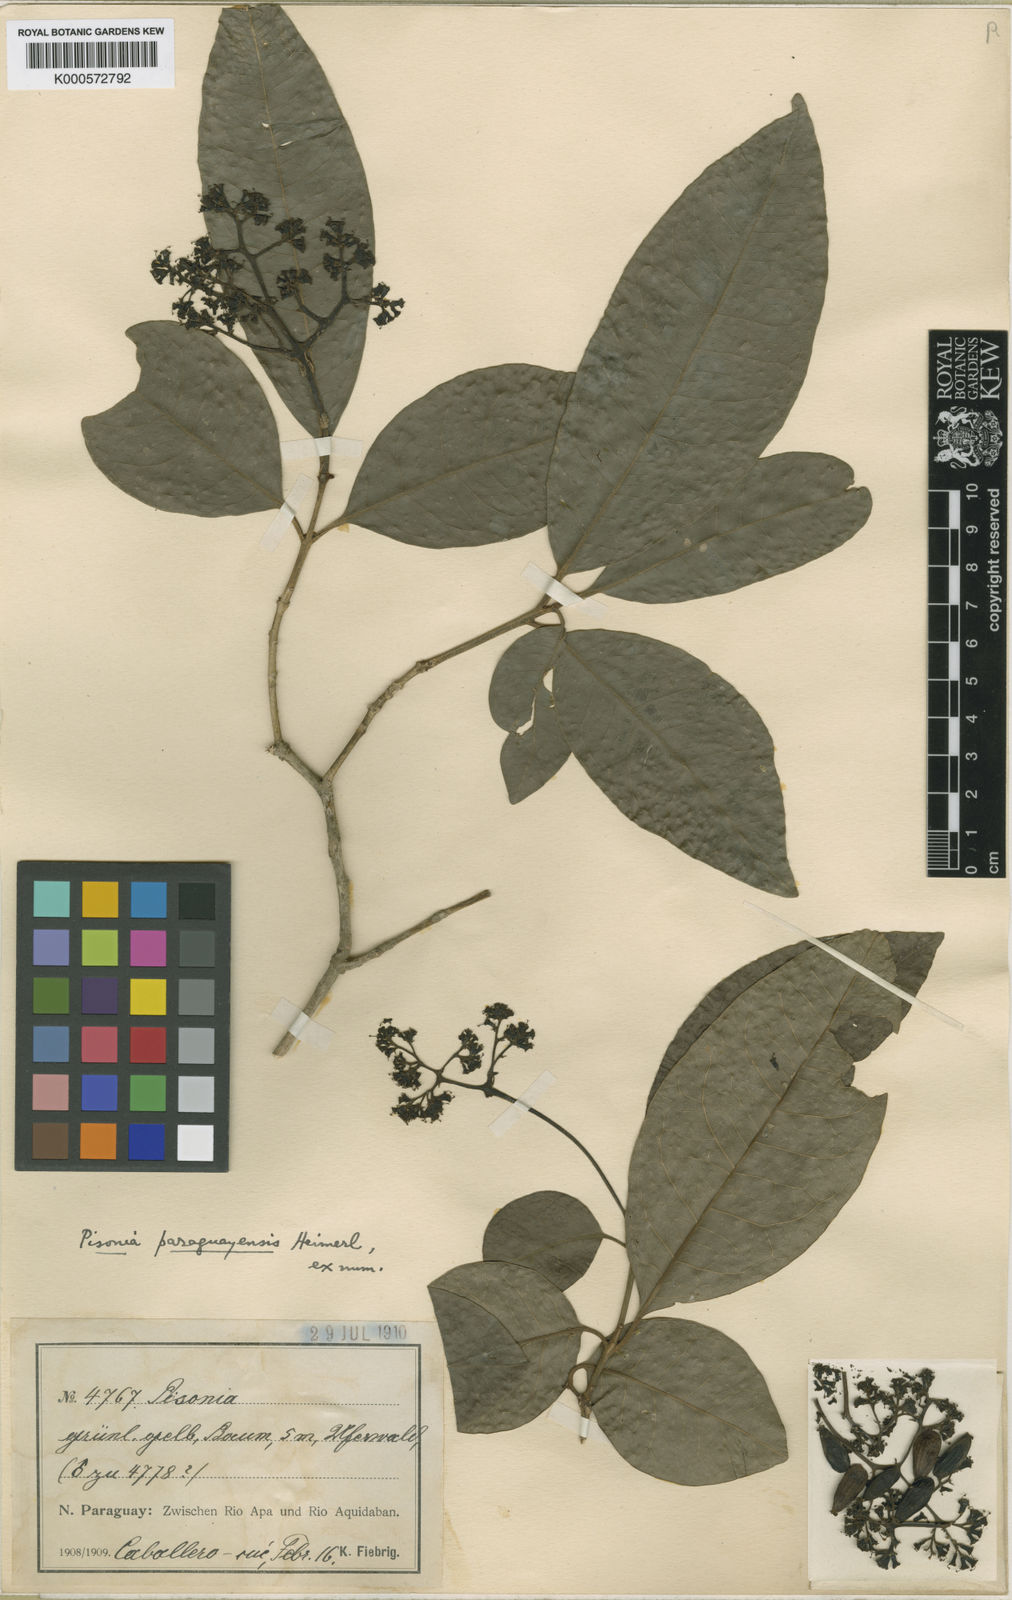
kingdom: Plantae
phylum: Tracheophyta
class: Magnoliopsida
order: Caryophyllales
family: Nyctaginaceae
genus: Guapira
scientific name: Guapira paraguayensis
